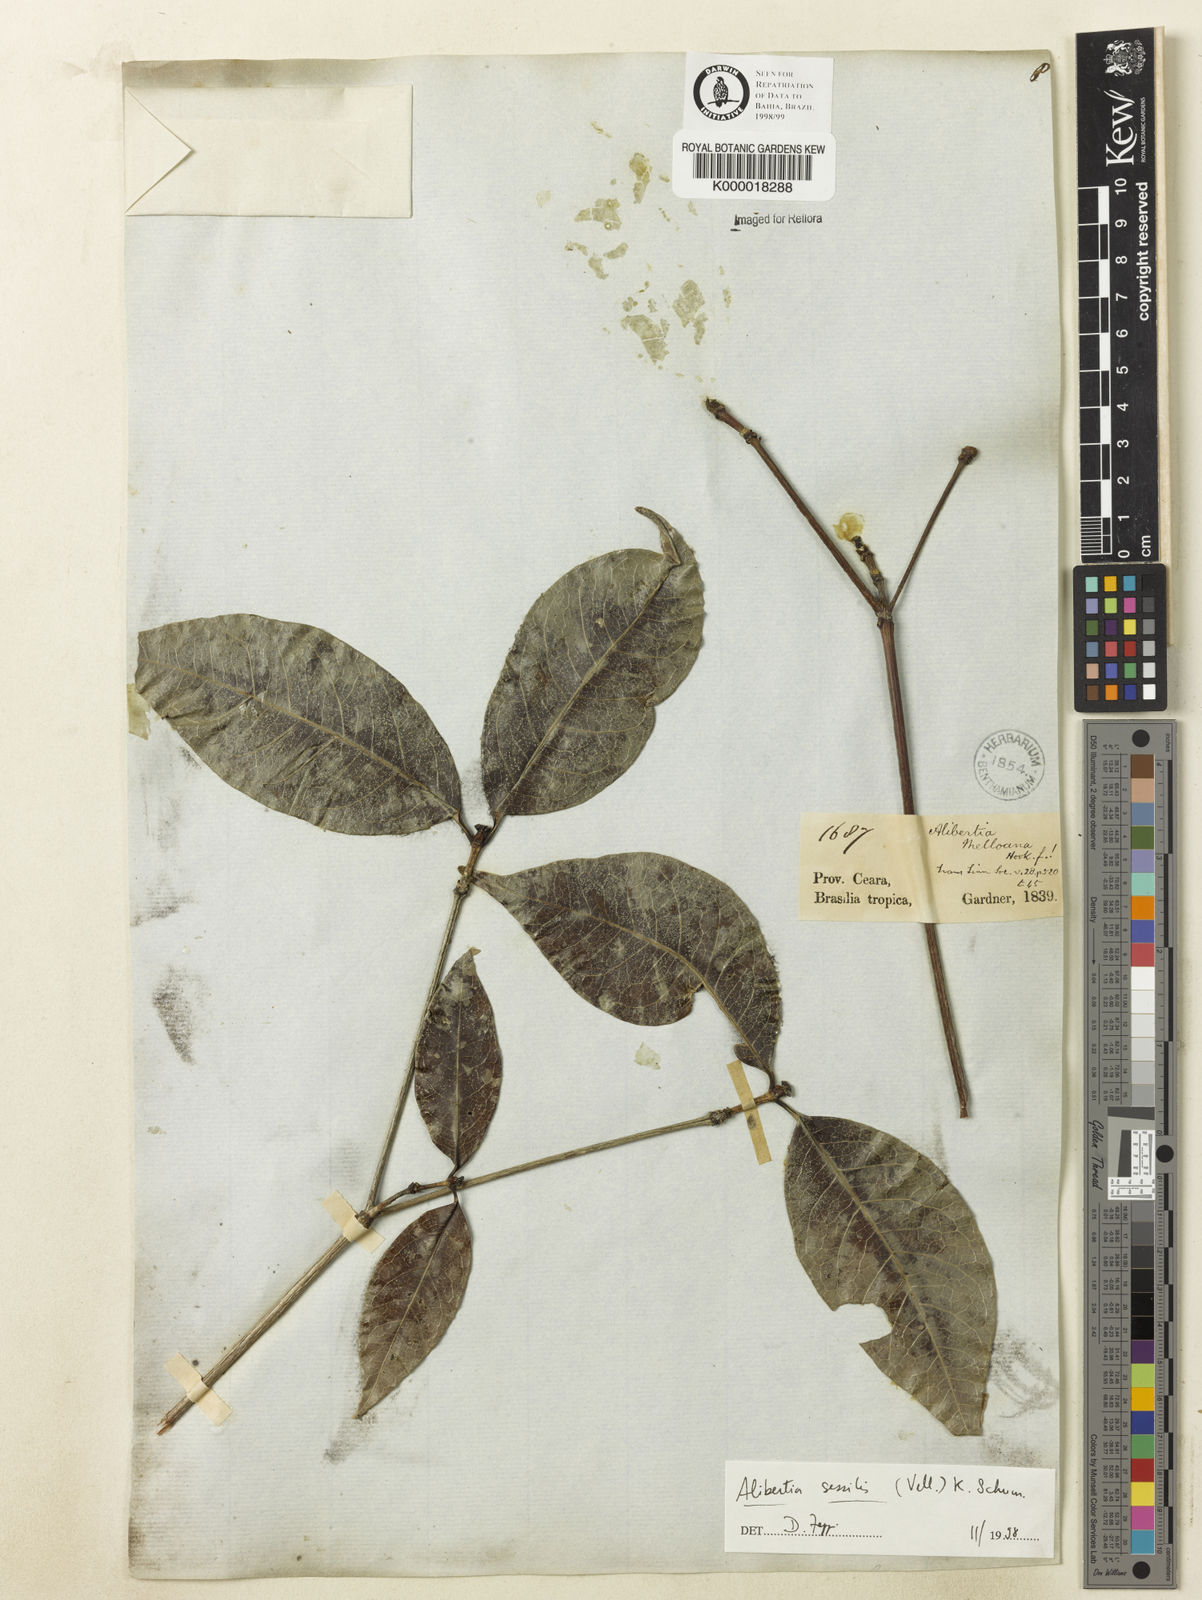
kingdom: Plantae
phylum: Tracheophyta
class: Magnoliopsida
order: Gentianales
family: Rubiaceae
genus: Cordiera
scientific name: Cordiera sessilis
